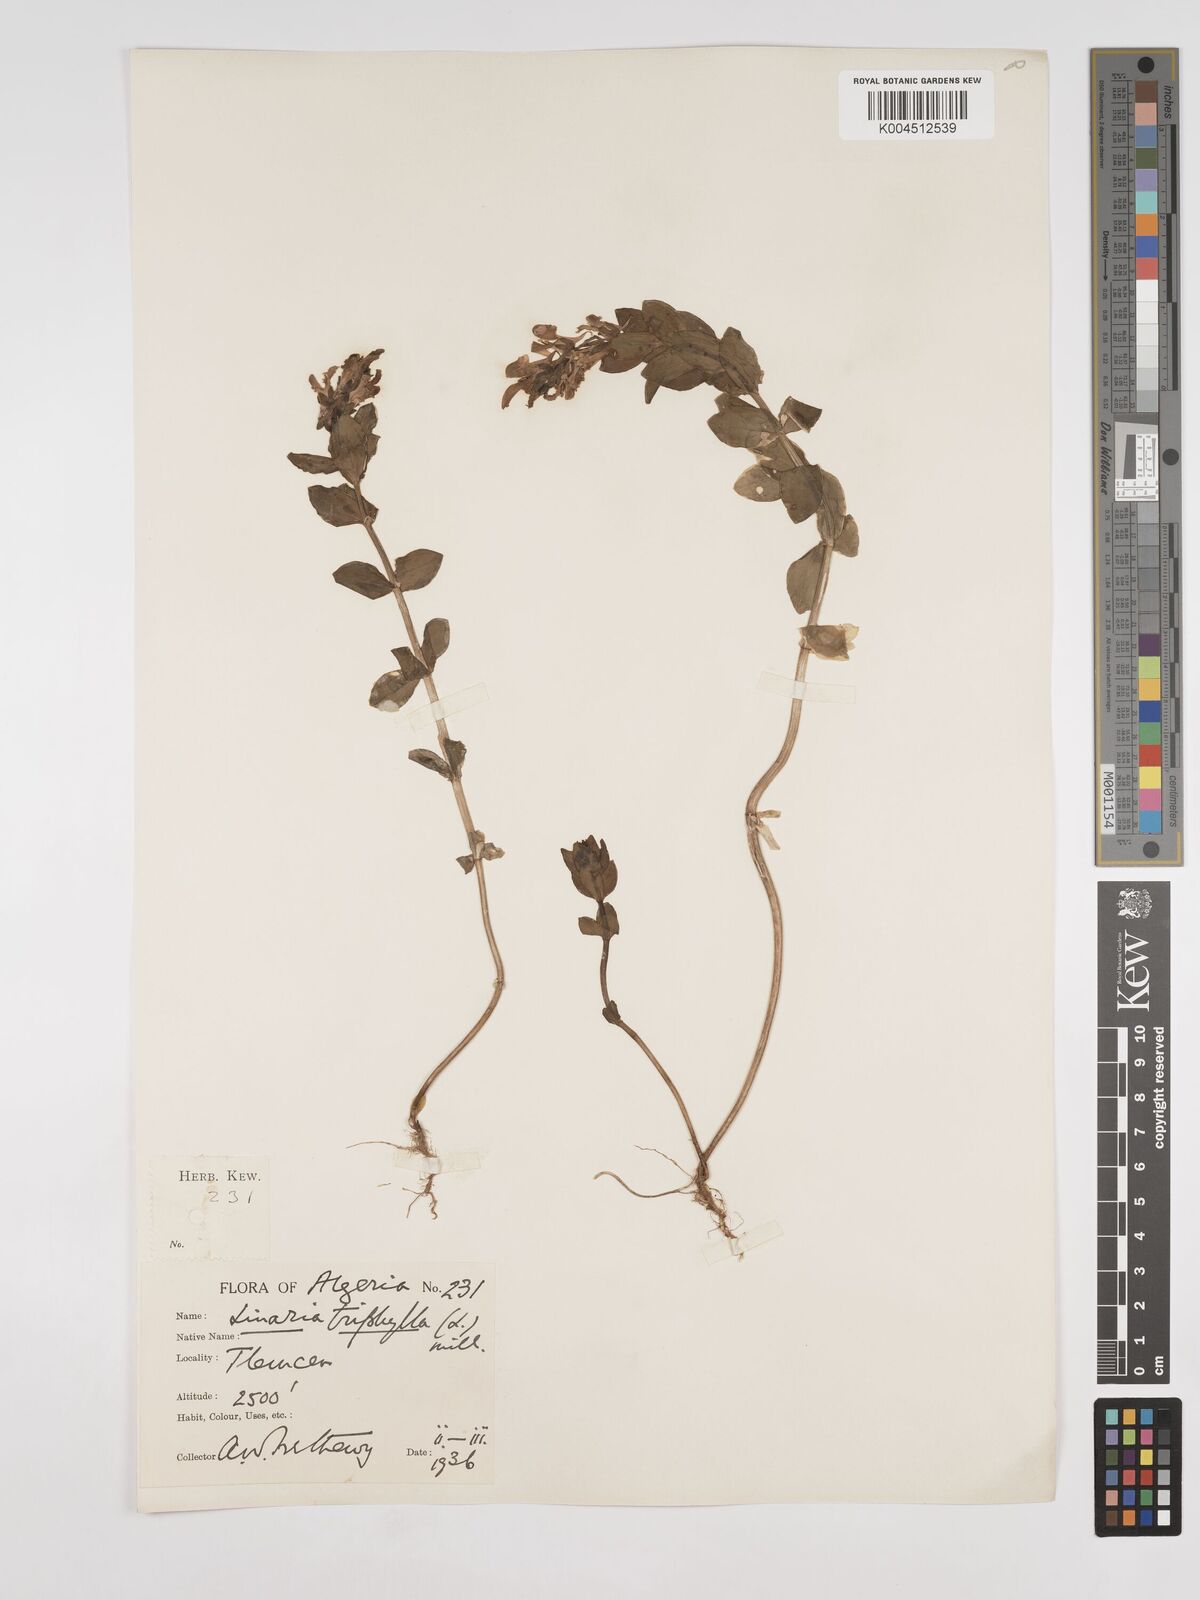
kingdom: Plantae
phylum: Tracheophyta
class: Magnoliopsida
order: Lamiales
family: Plantaginaceae
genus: Linaria
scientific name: Linaria triphylla
